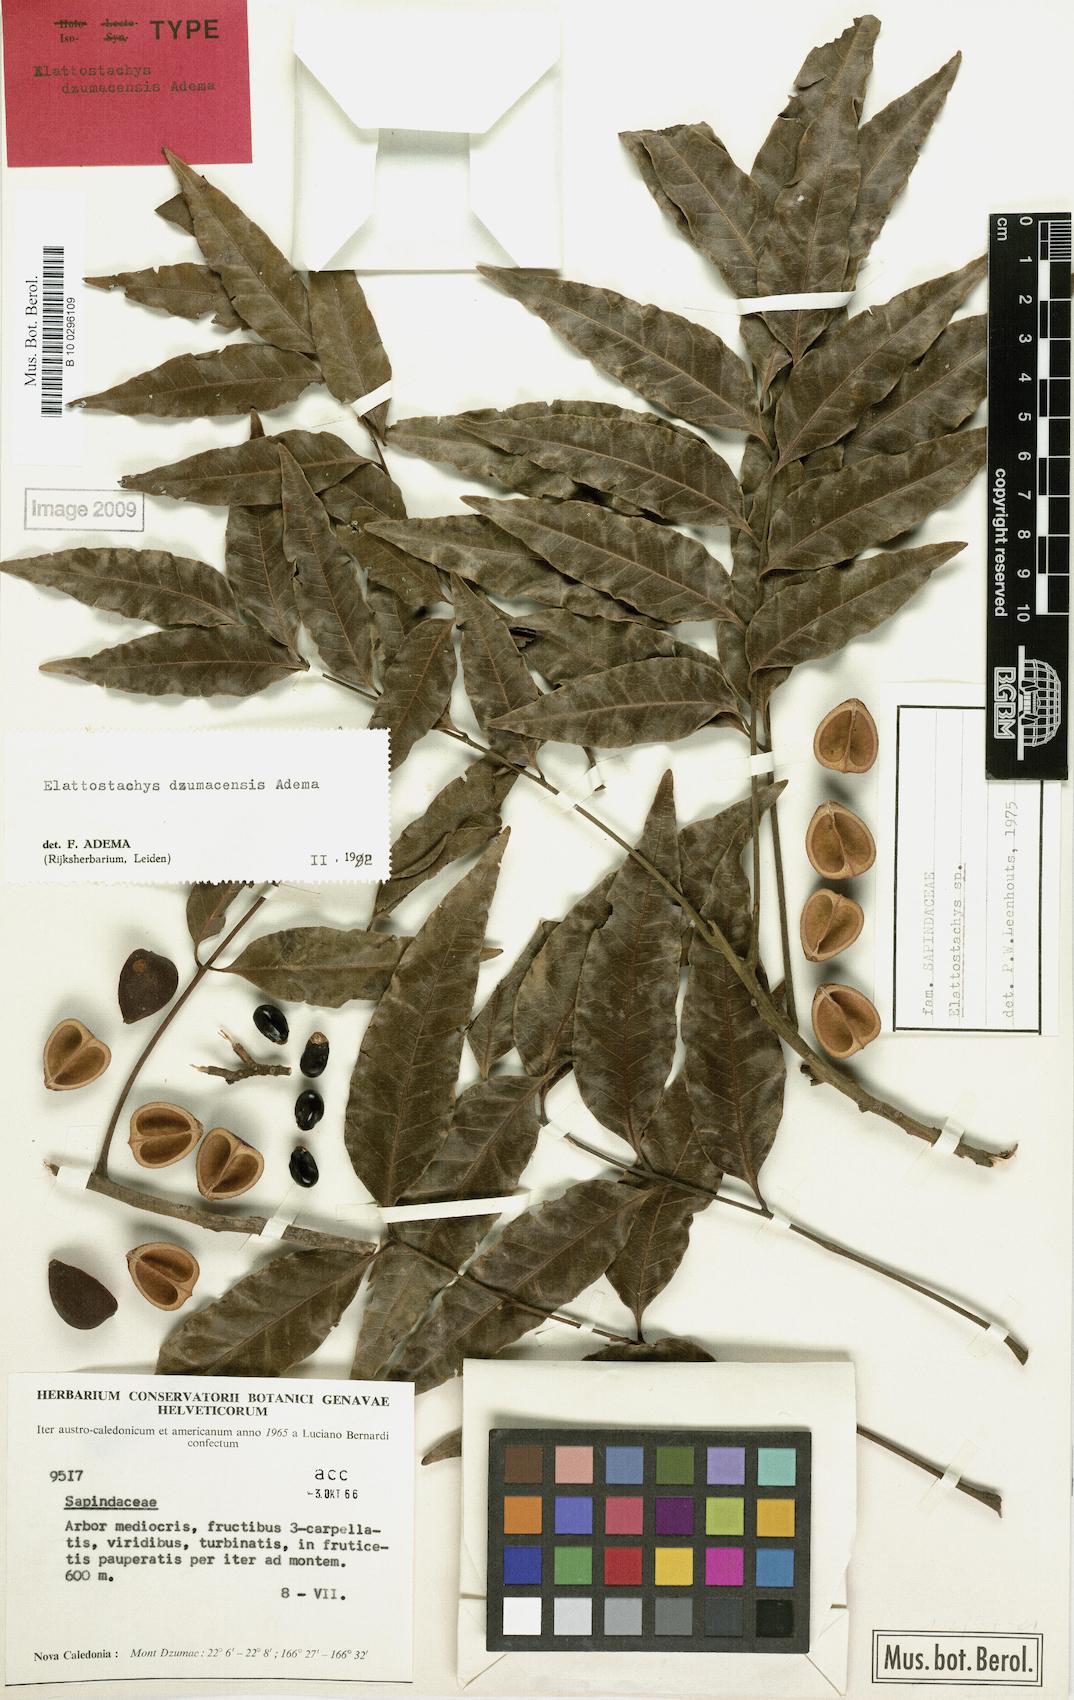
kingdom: Plantae
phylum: Tracheophyta
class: Magnoliopsida
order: Sapindales
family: Sapindaceae
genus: Elattostachys
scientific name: Elattostachys dzumacensis
